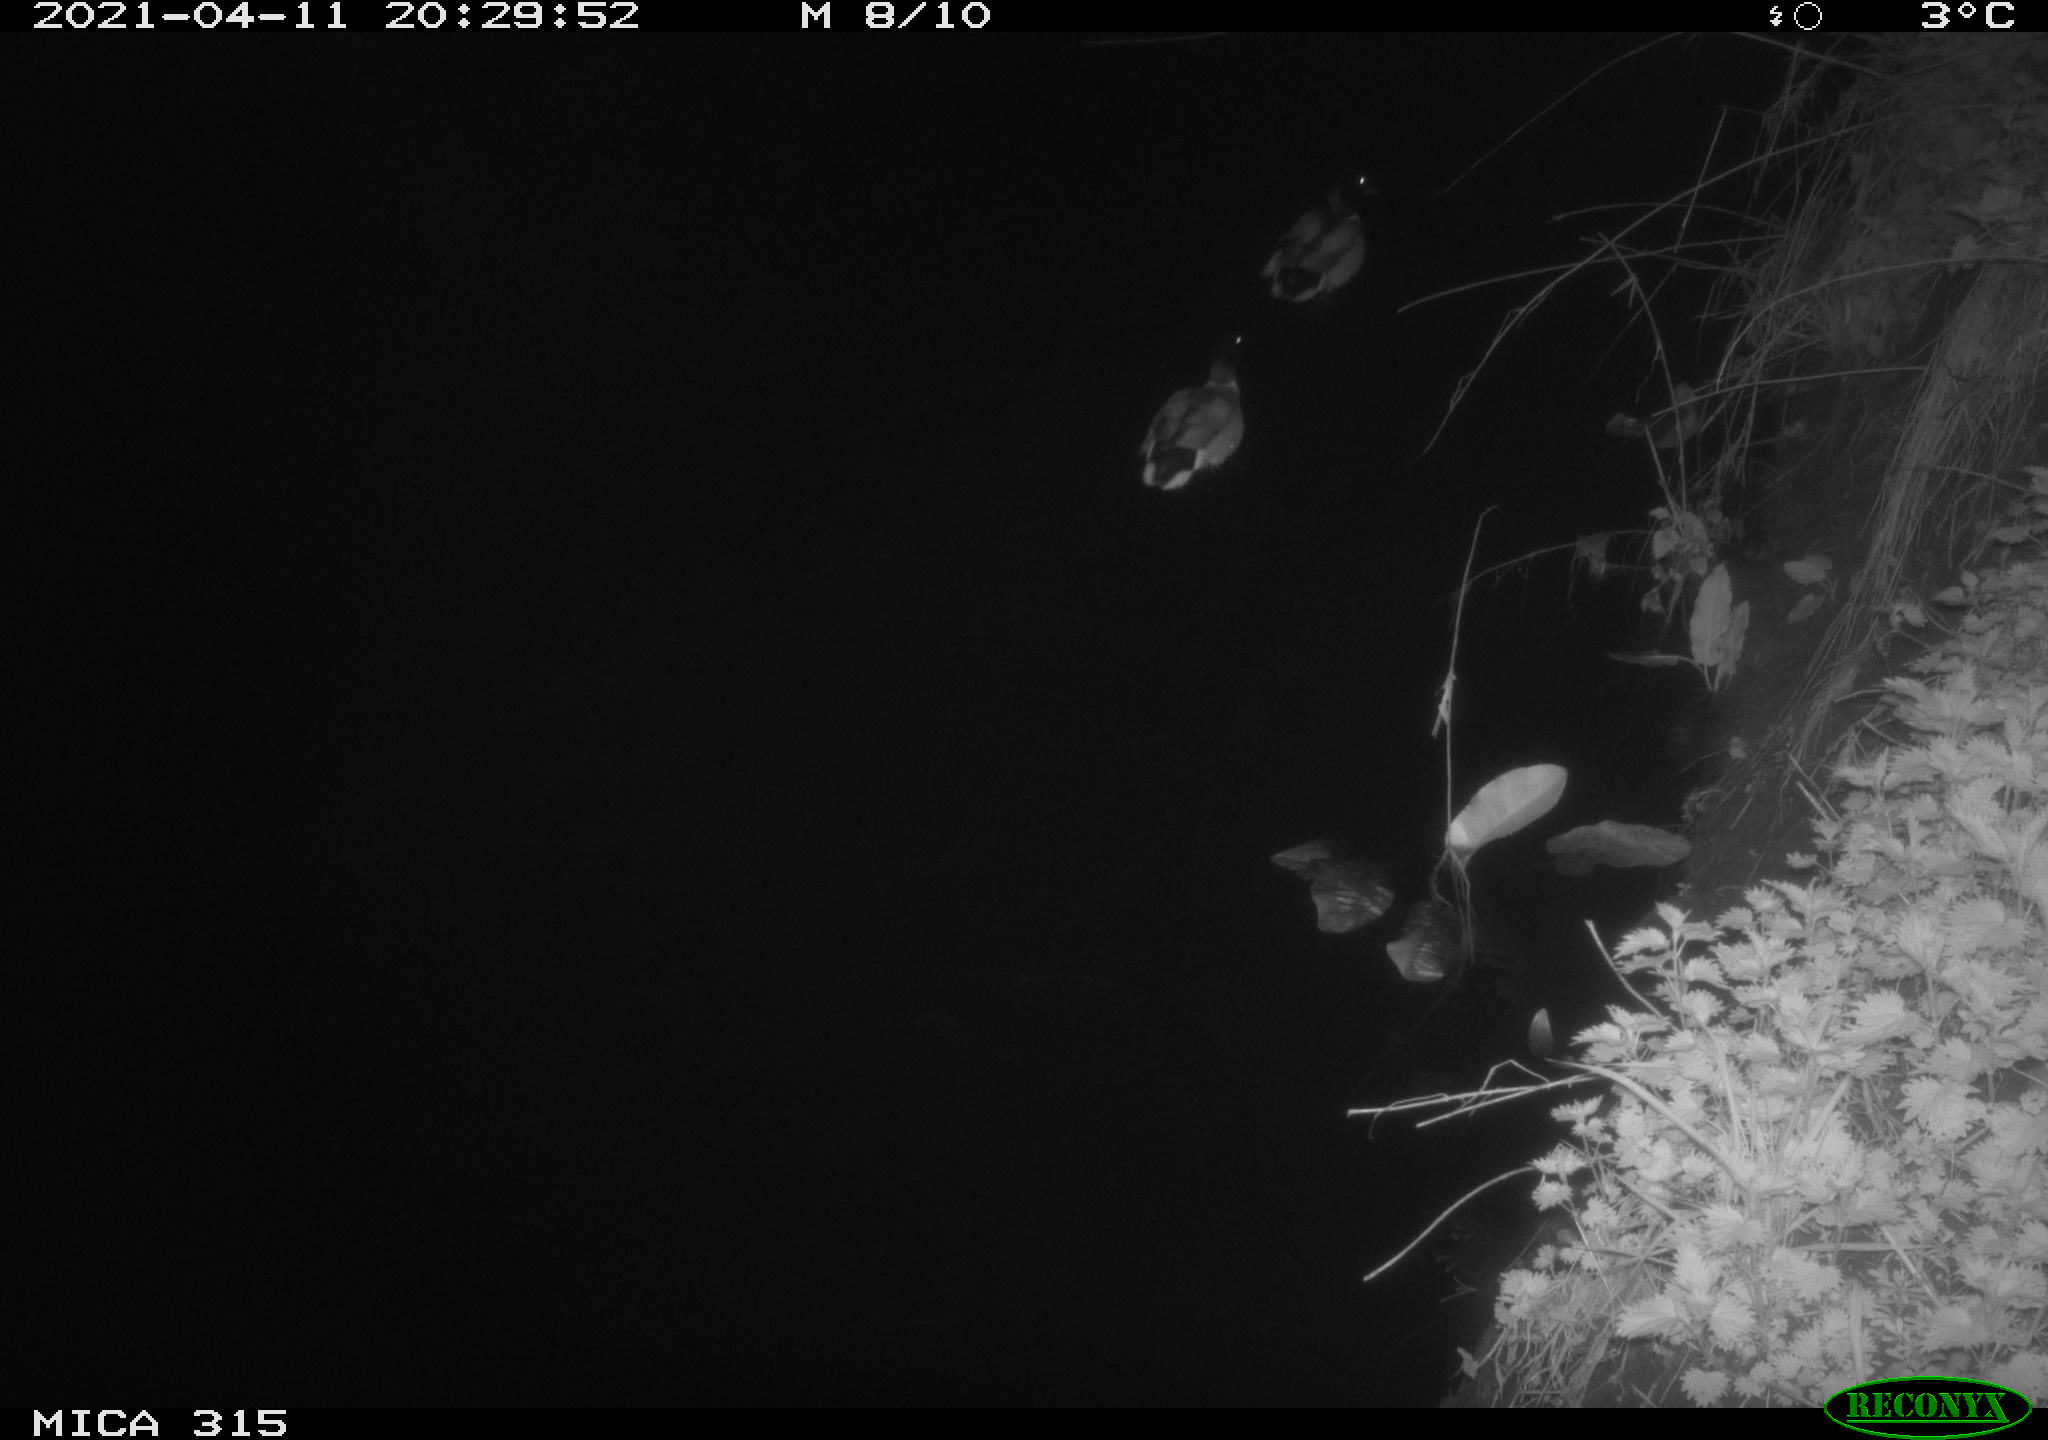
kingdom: Animalia
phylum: Chordata
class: Aves
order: Anseriformes
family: Anatidae
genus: Anas
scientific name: Anas platyrhynchos
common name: Mallard
